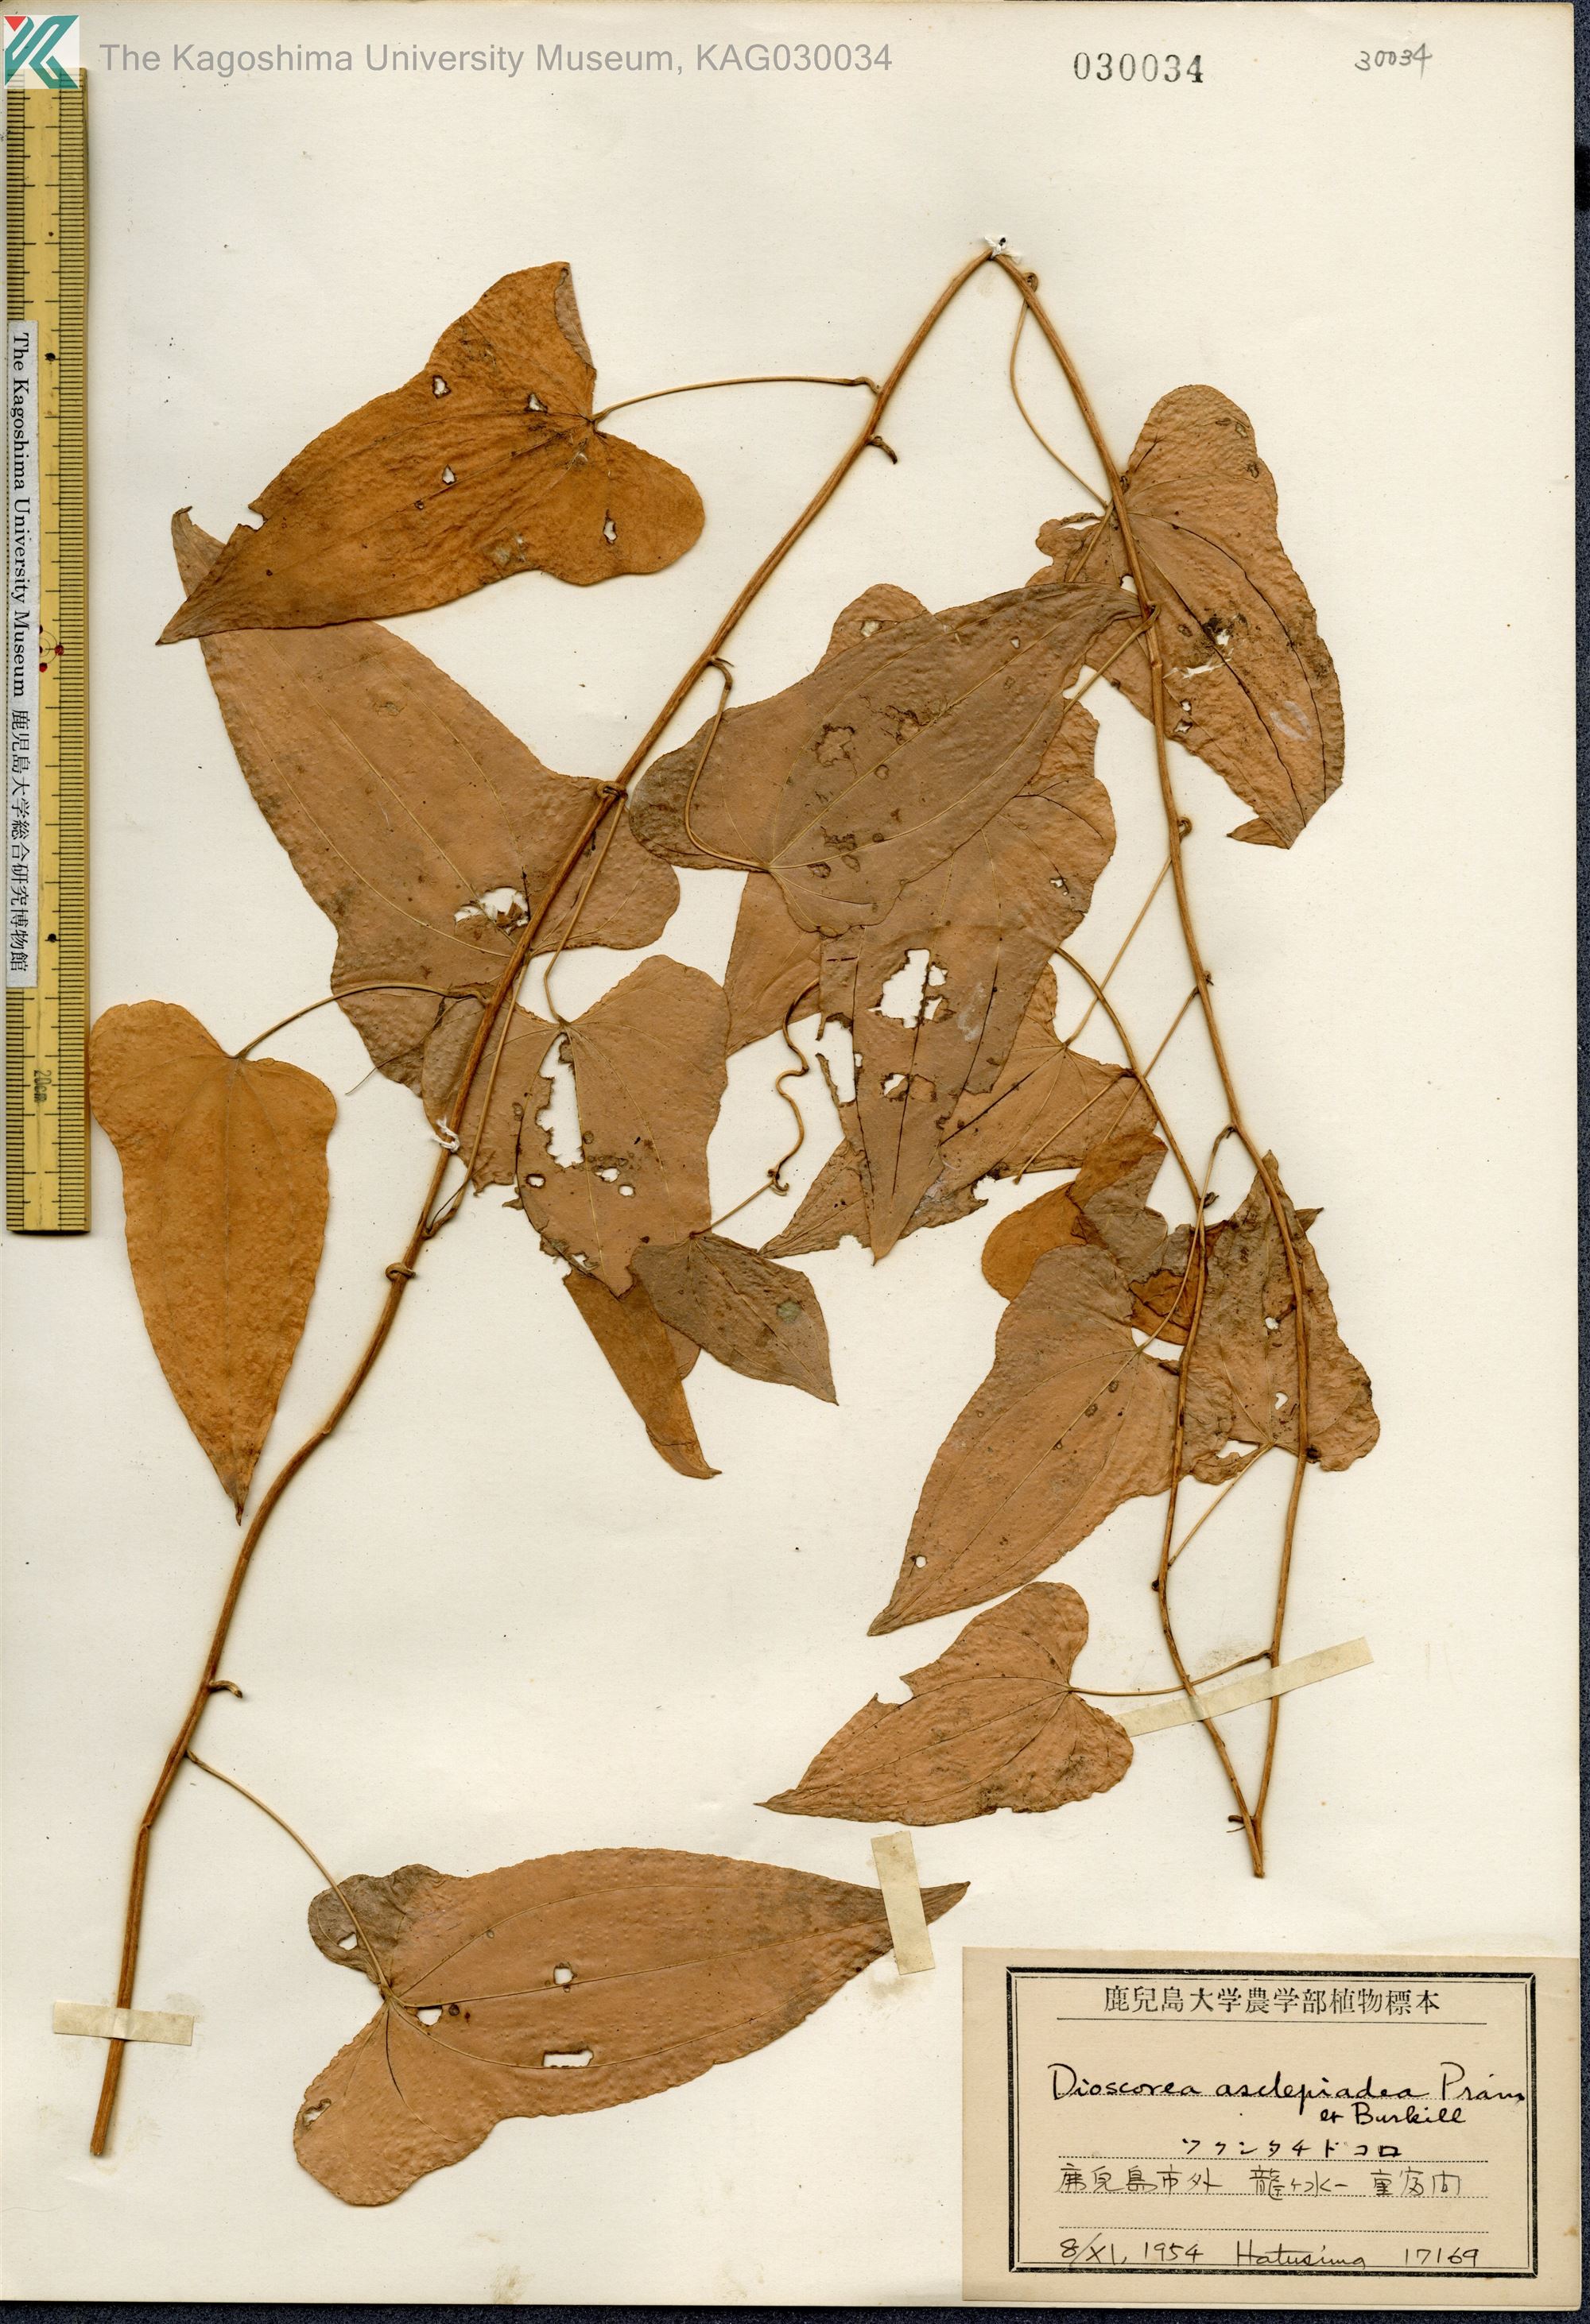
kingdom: Plantae
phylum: Tracheophyta
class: Liliopsida
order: Dioscoreales
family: Dioscoreaceae
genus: Dioscorea
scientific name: Dioscorea asclepiadea
